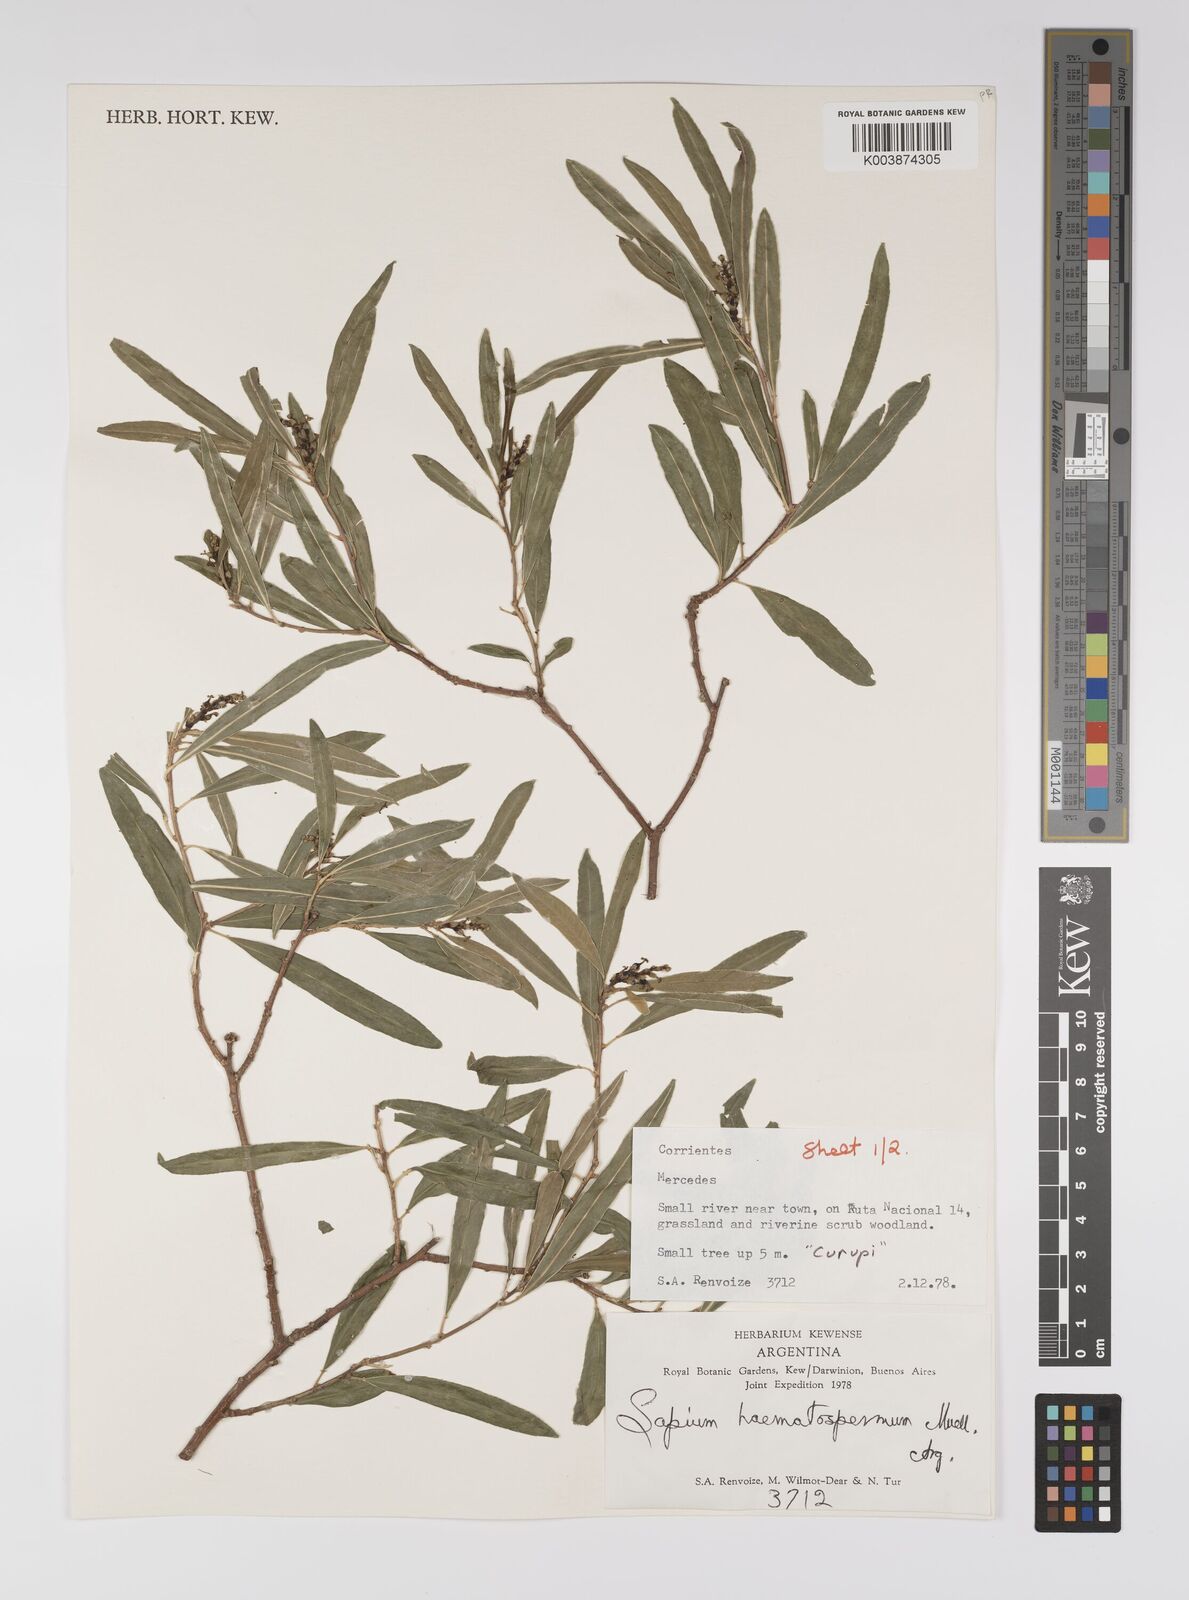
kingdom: Plantae
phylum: Tracheophyta
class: Magnoliopsida
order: Malpighiales
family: Euphorbiaceae
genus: Sapium
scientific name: Sapium haematospermum
